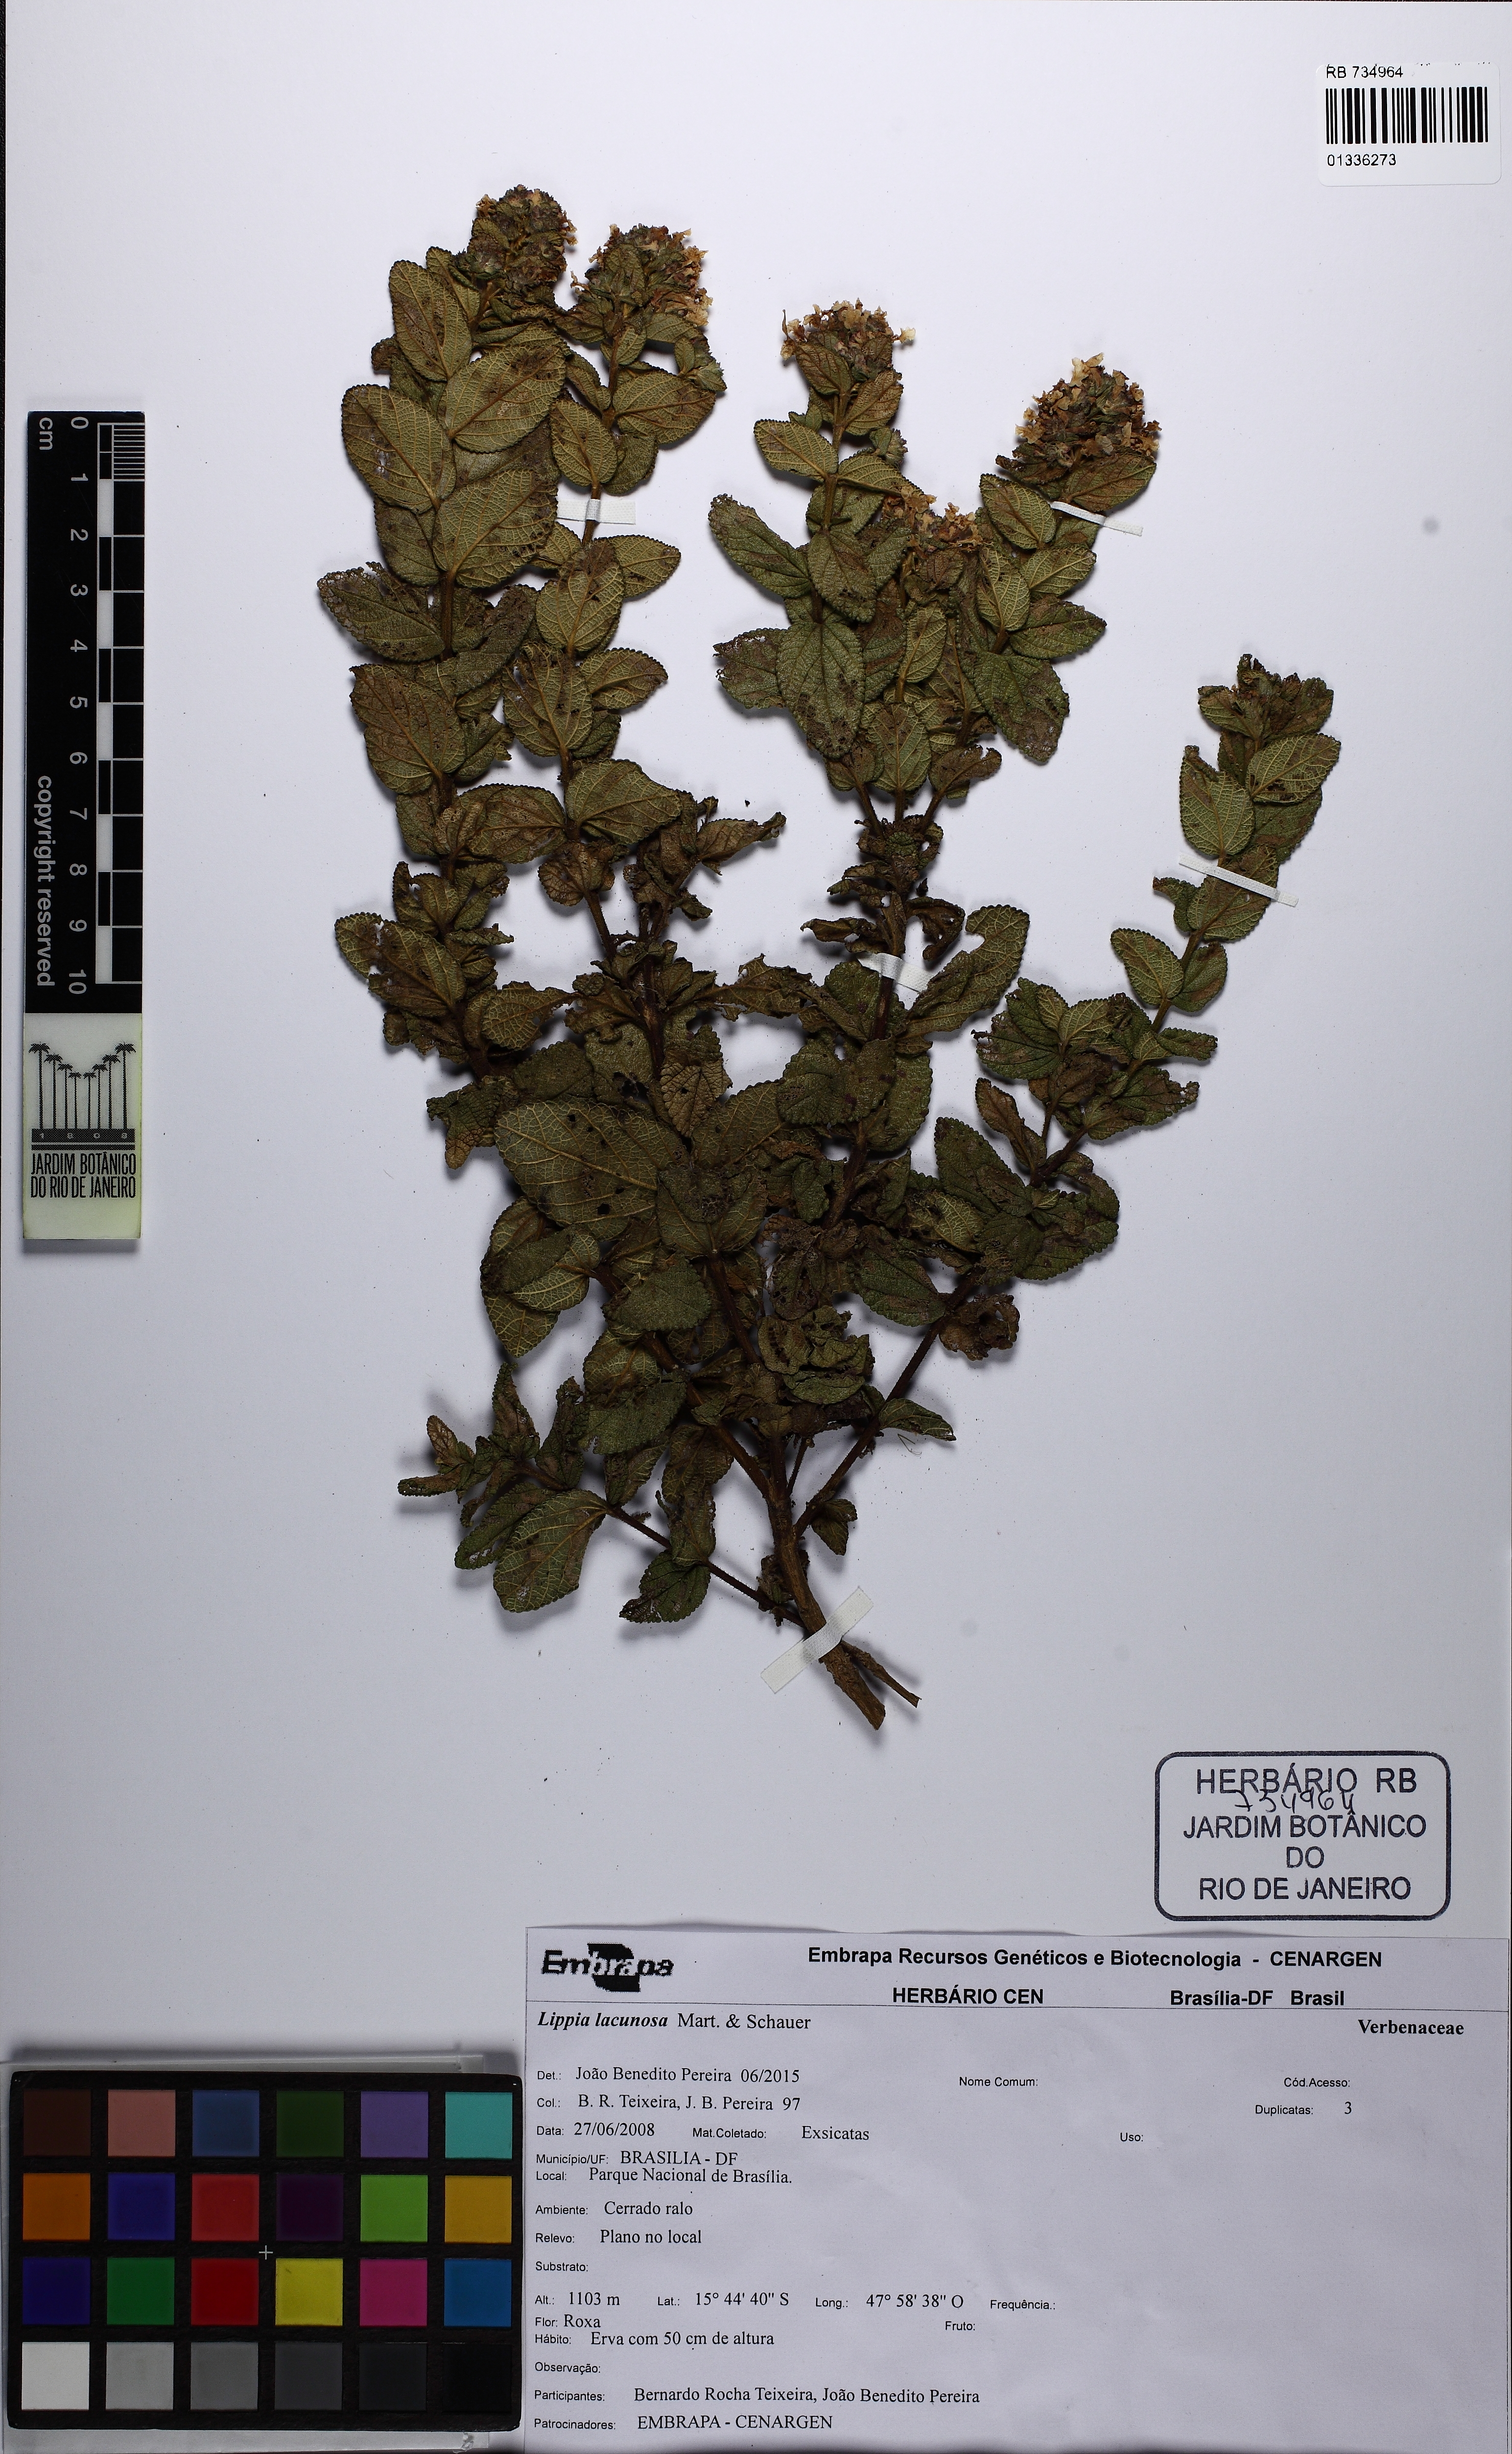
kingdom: Plantae
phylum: Tracheophyta
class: Magnoliopsida
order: Lamiales
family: Verbenaceae
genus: Lippia
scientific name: Lippia lacunosa
